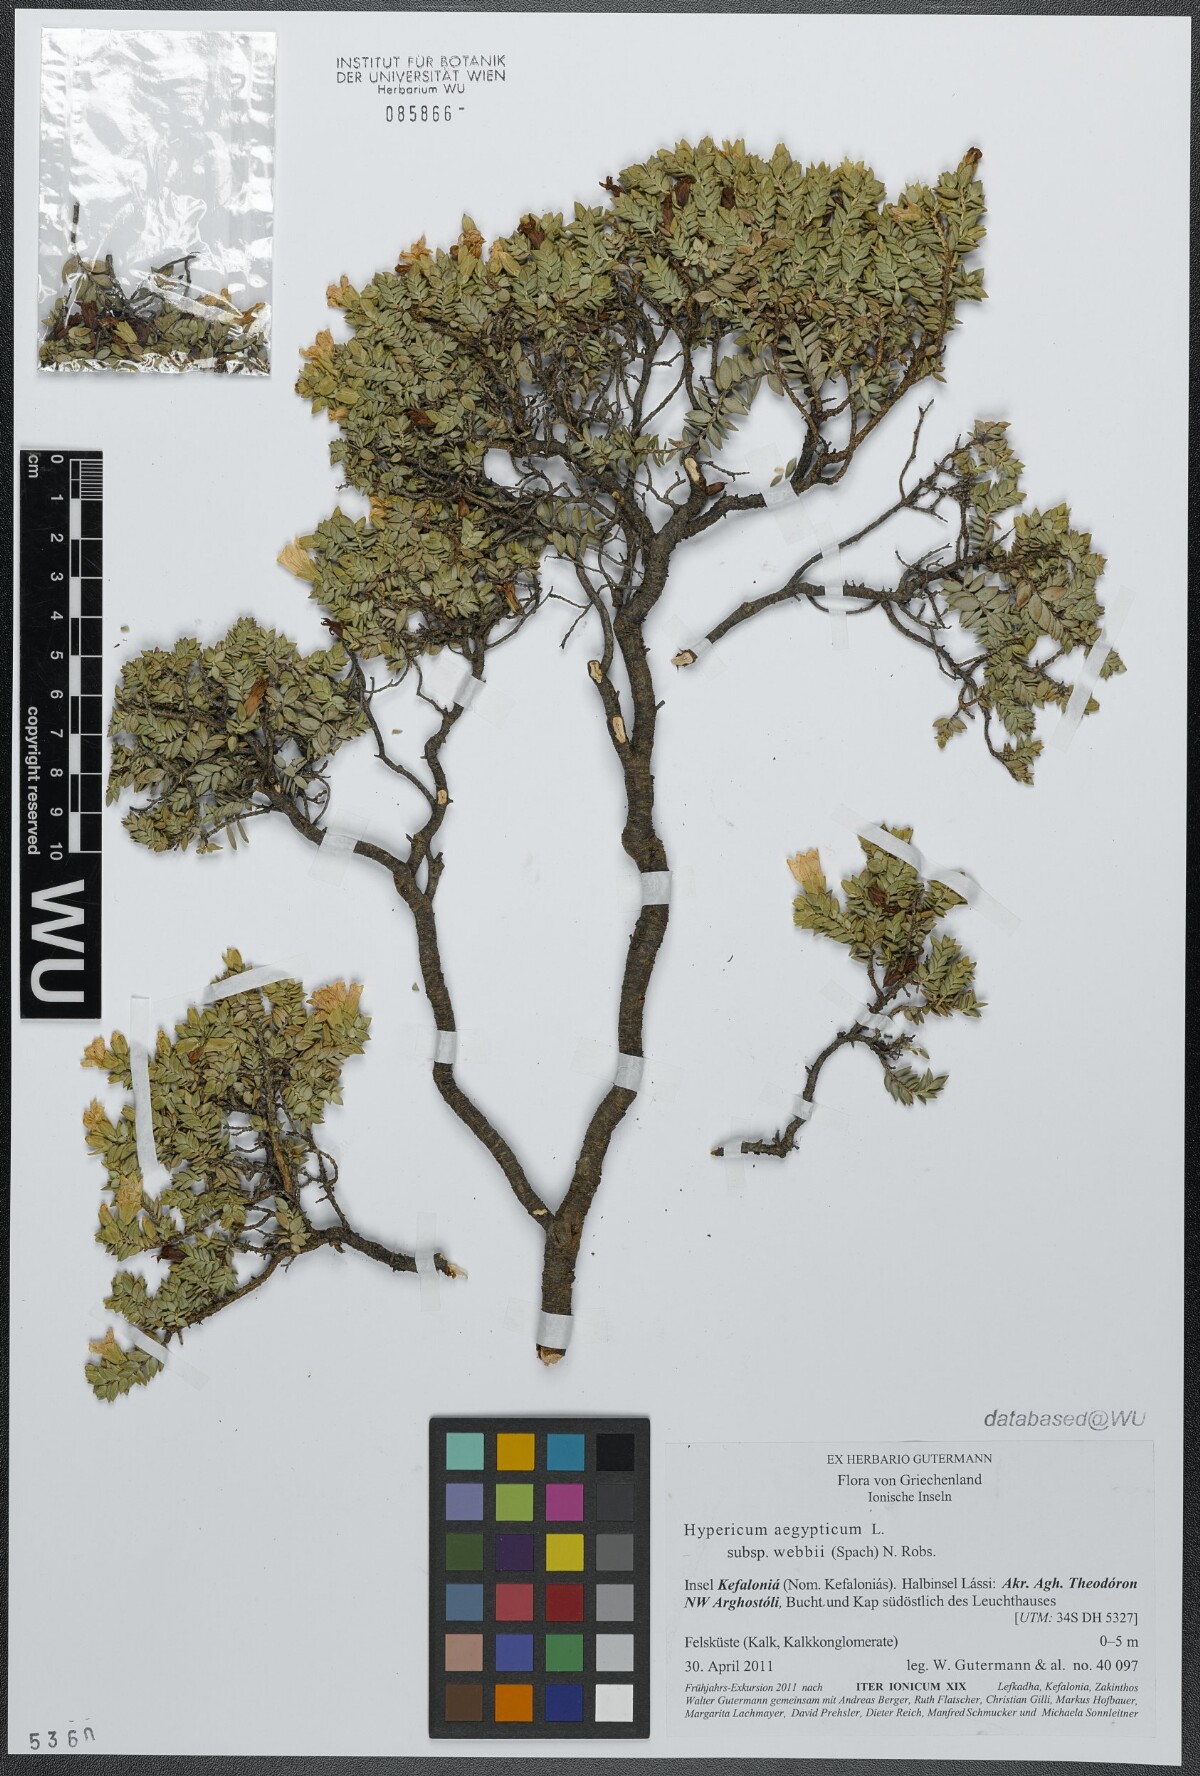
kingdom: Plantae
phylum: Tracheophyta
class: Magnoliopsida
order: Malpighiales
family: Hypericaceae
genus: Hypericum
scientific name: Hypericum aegypticum
